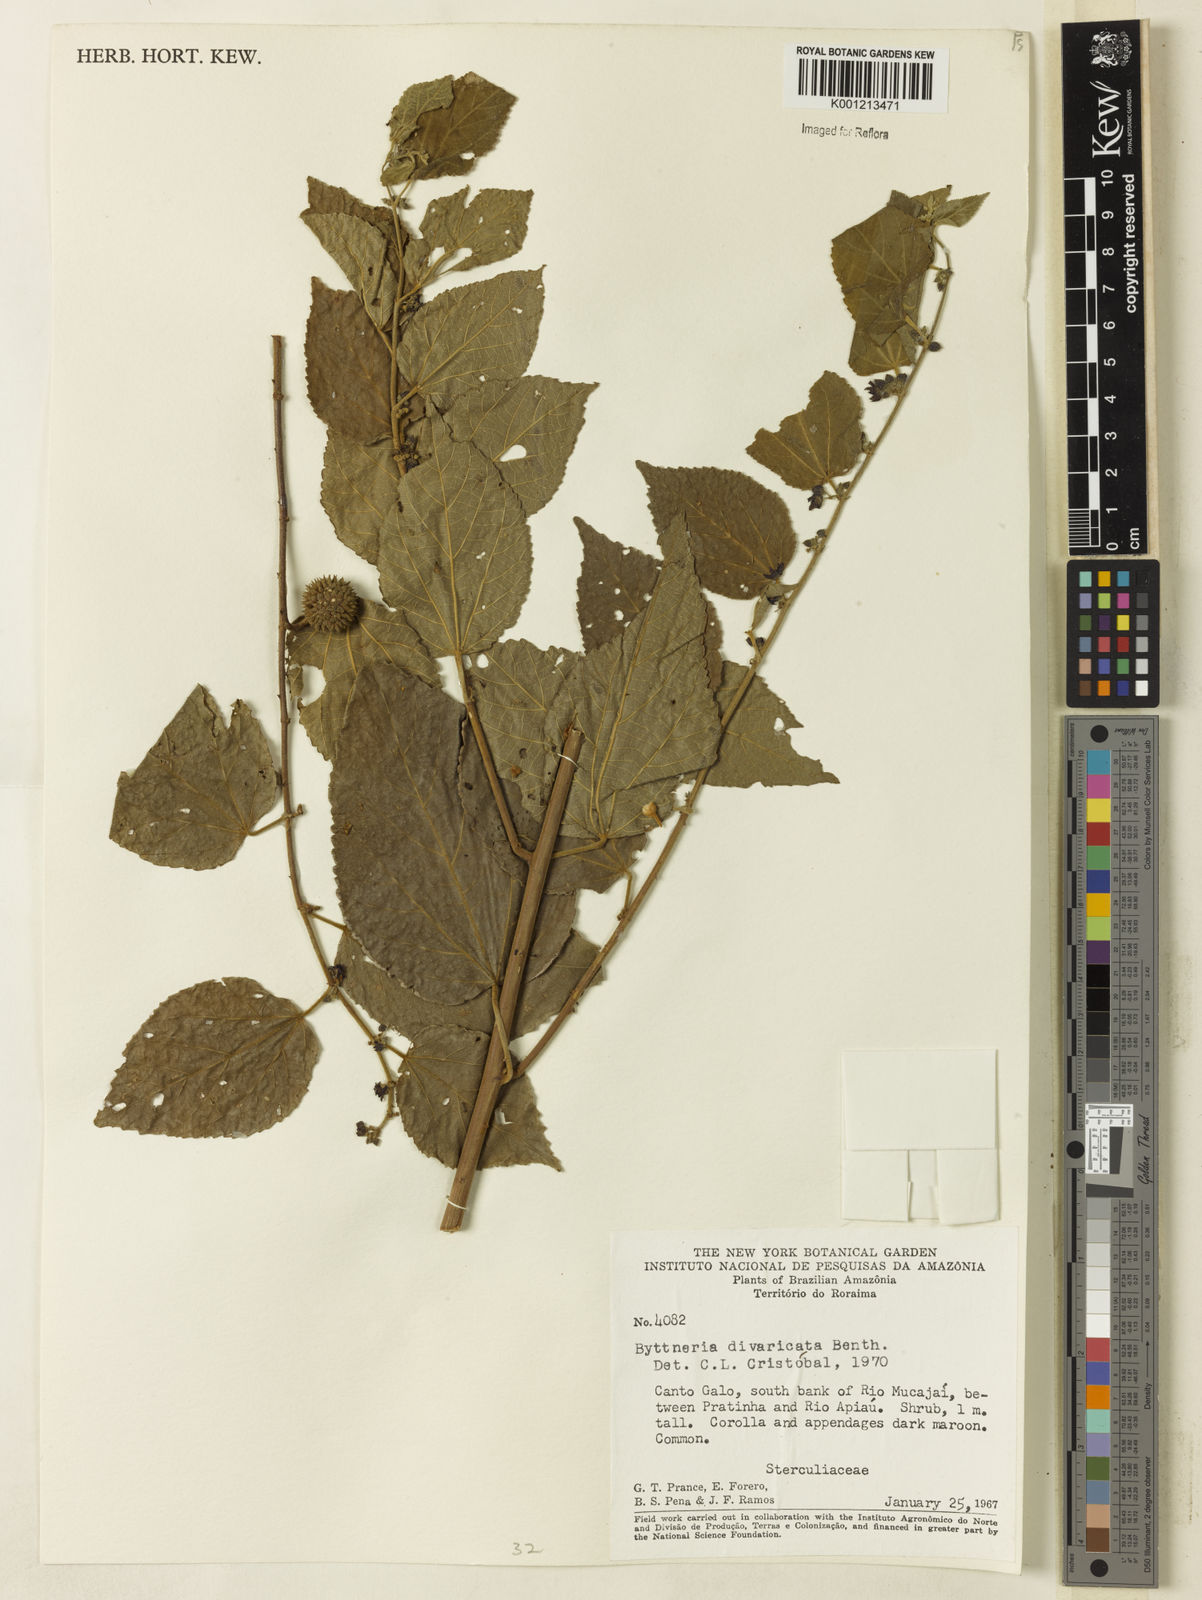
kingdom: Plantae
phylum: Tracheophyta
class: Magnoliopsida
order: Malvales
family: Malvaceae
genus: Byttneria
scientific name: Byttneria divaricata
